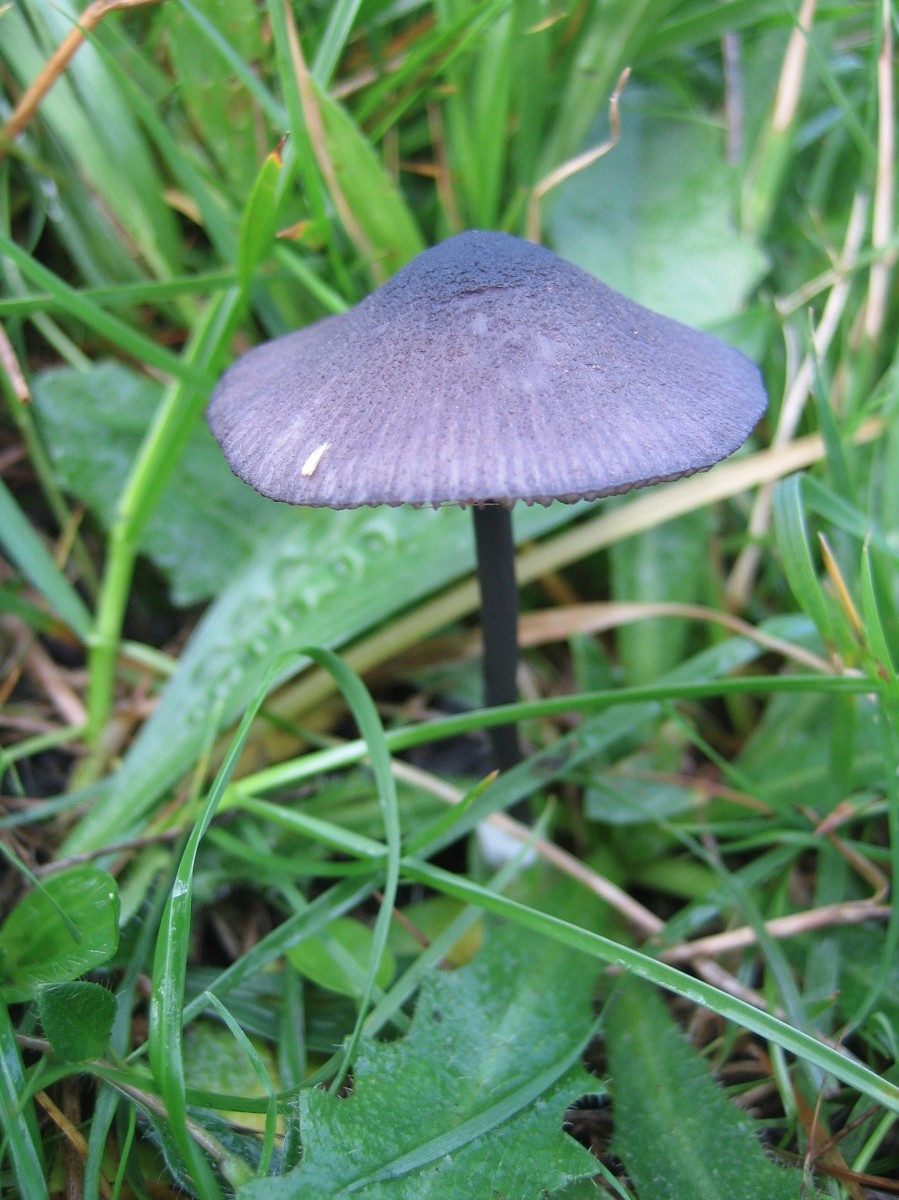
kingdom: Fungi
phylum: Basidiomycota
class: Agaricomycetes
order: Agaricales
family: Entolomataceae
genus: Entoloma
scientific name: Entoloma
